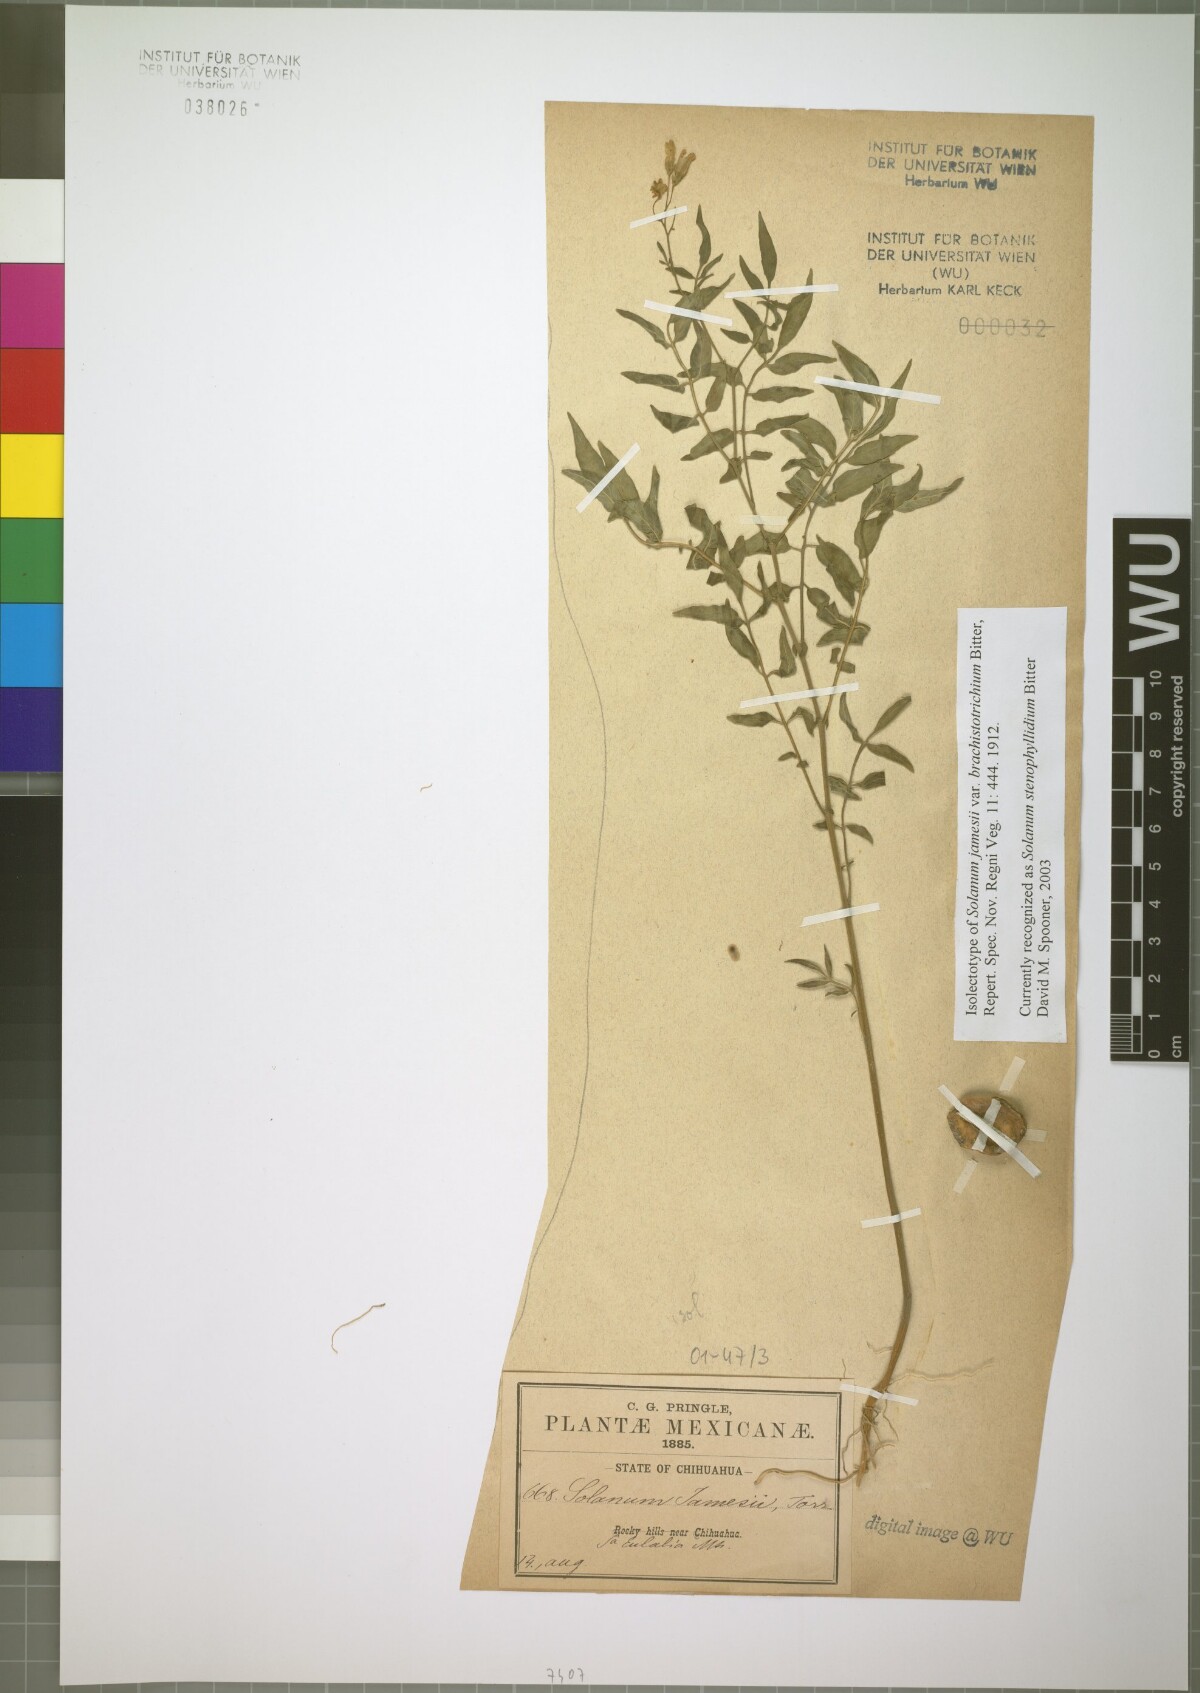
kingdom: Plantae
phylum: Tracheophyta
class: Magnoliopsida
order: Solanales
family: Solanaceae
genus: Solanum
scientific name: Solanum stenophyllidium
